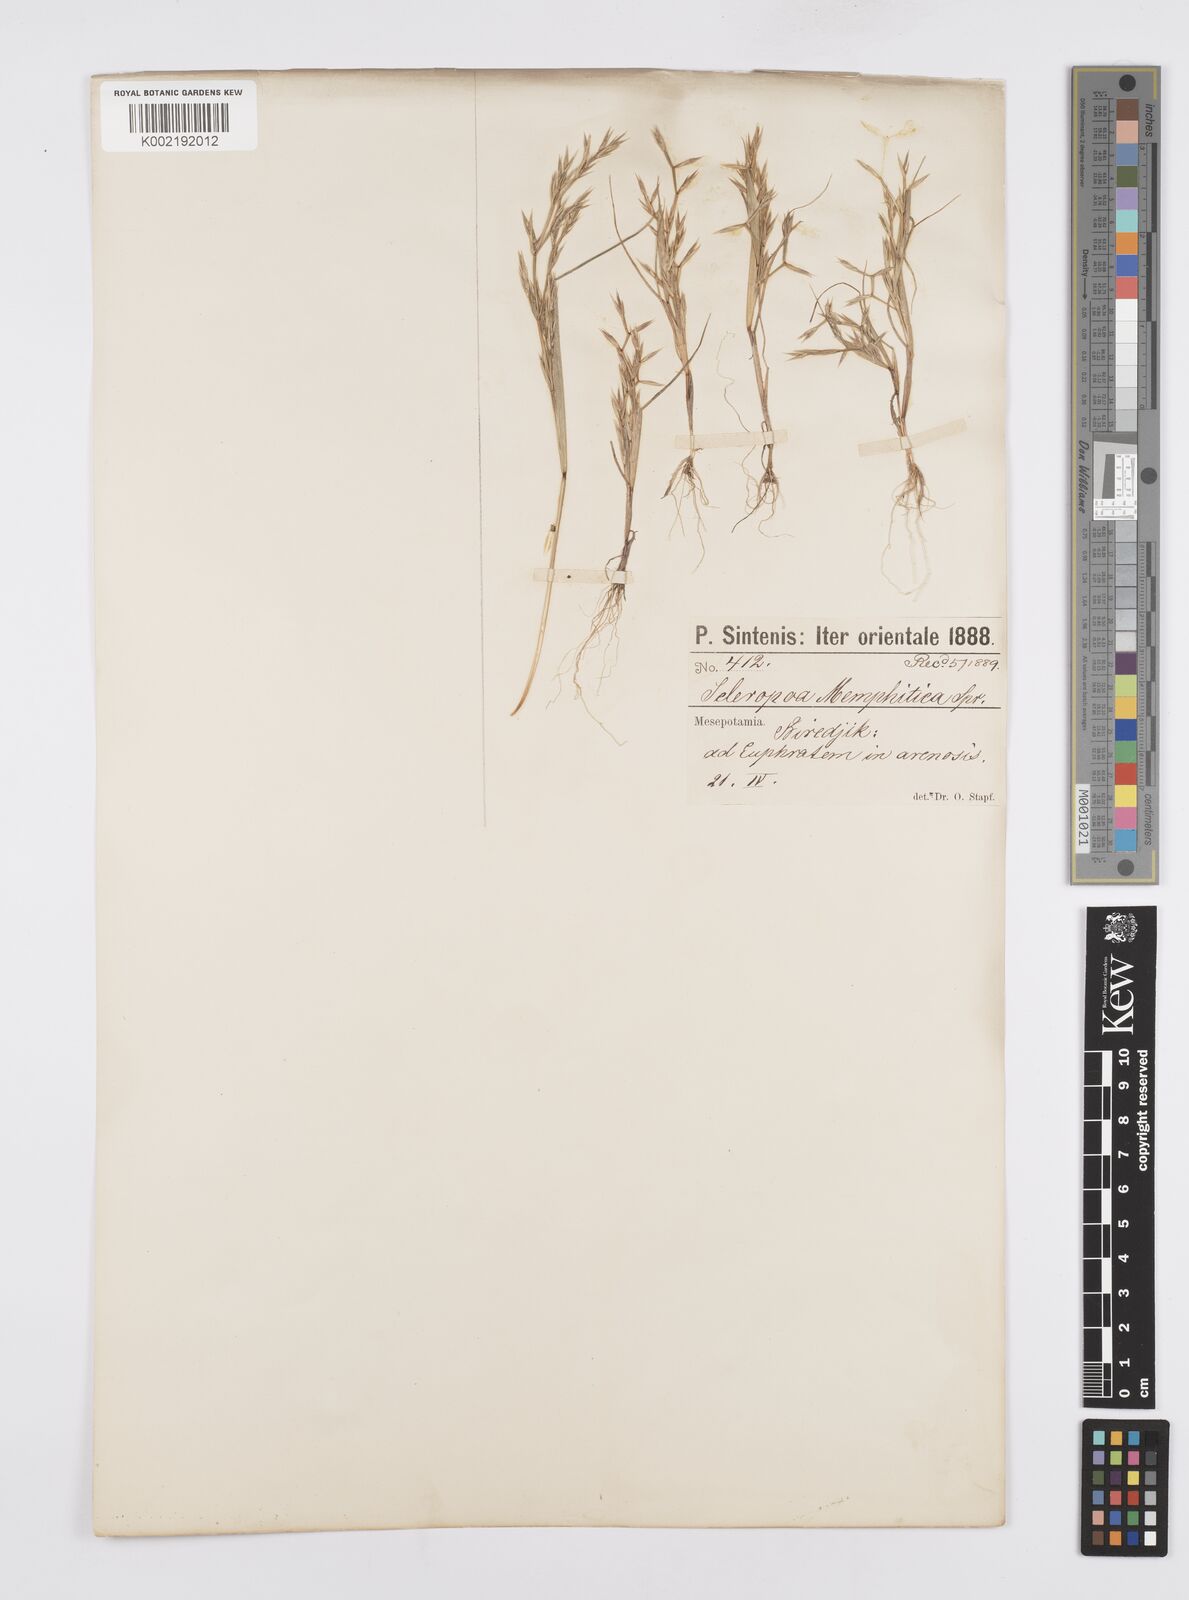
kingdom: Plantae
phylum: Tracheophyta
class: Liliopsida
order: Poales
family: Poaceae
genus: Cutandia
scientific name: Cutandia memphitica
